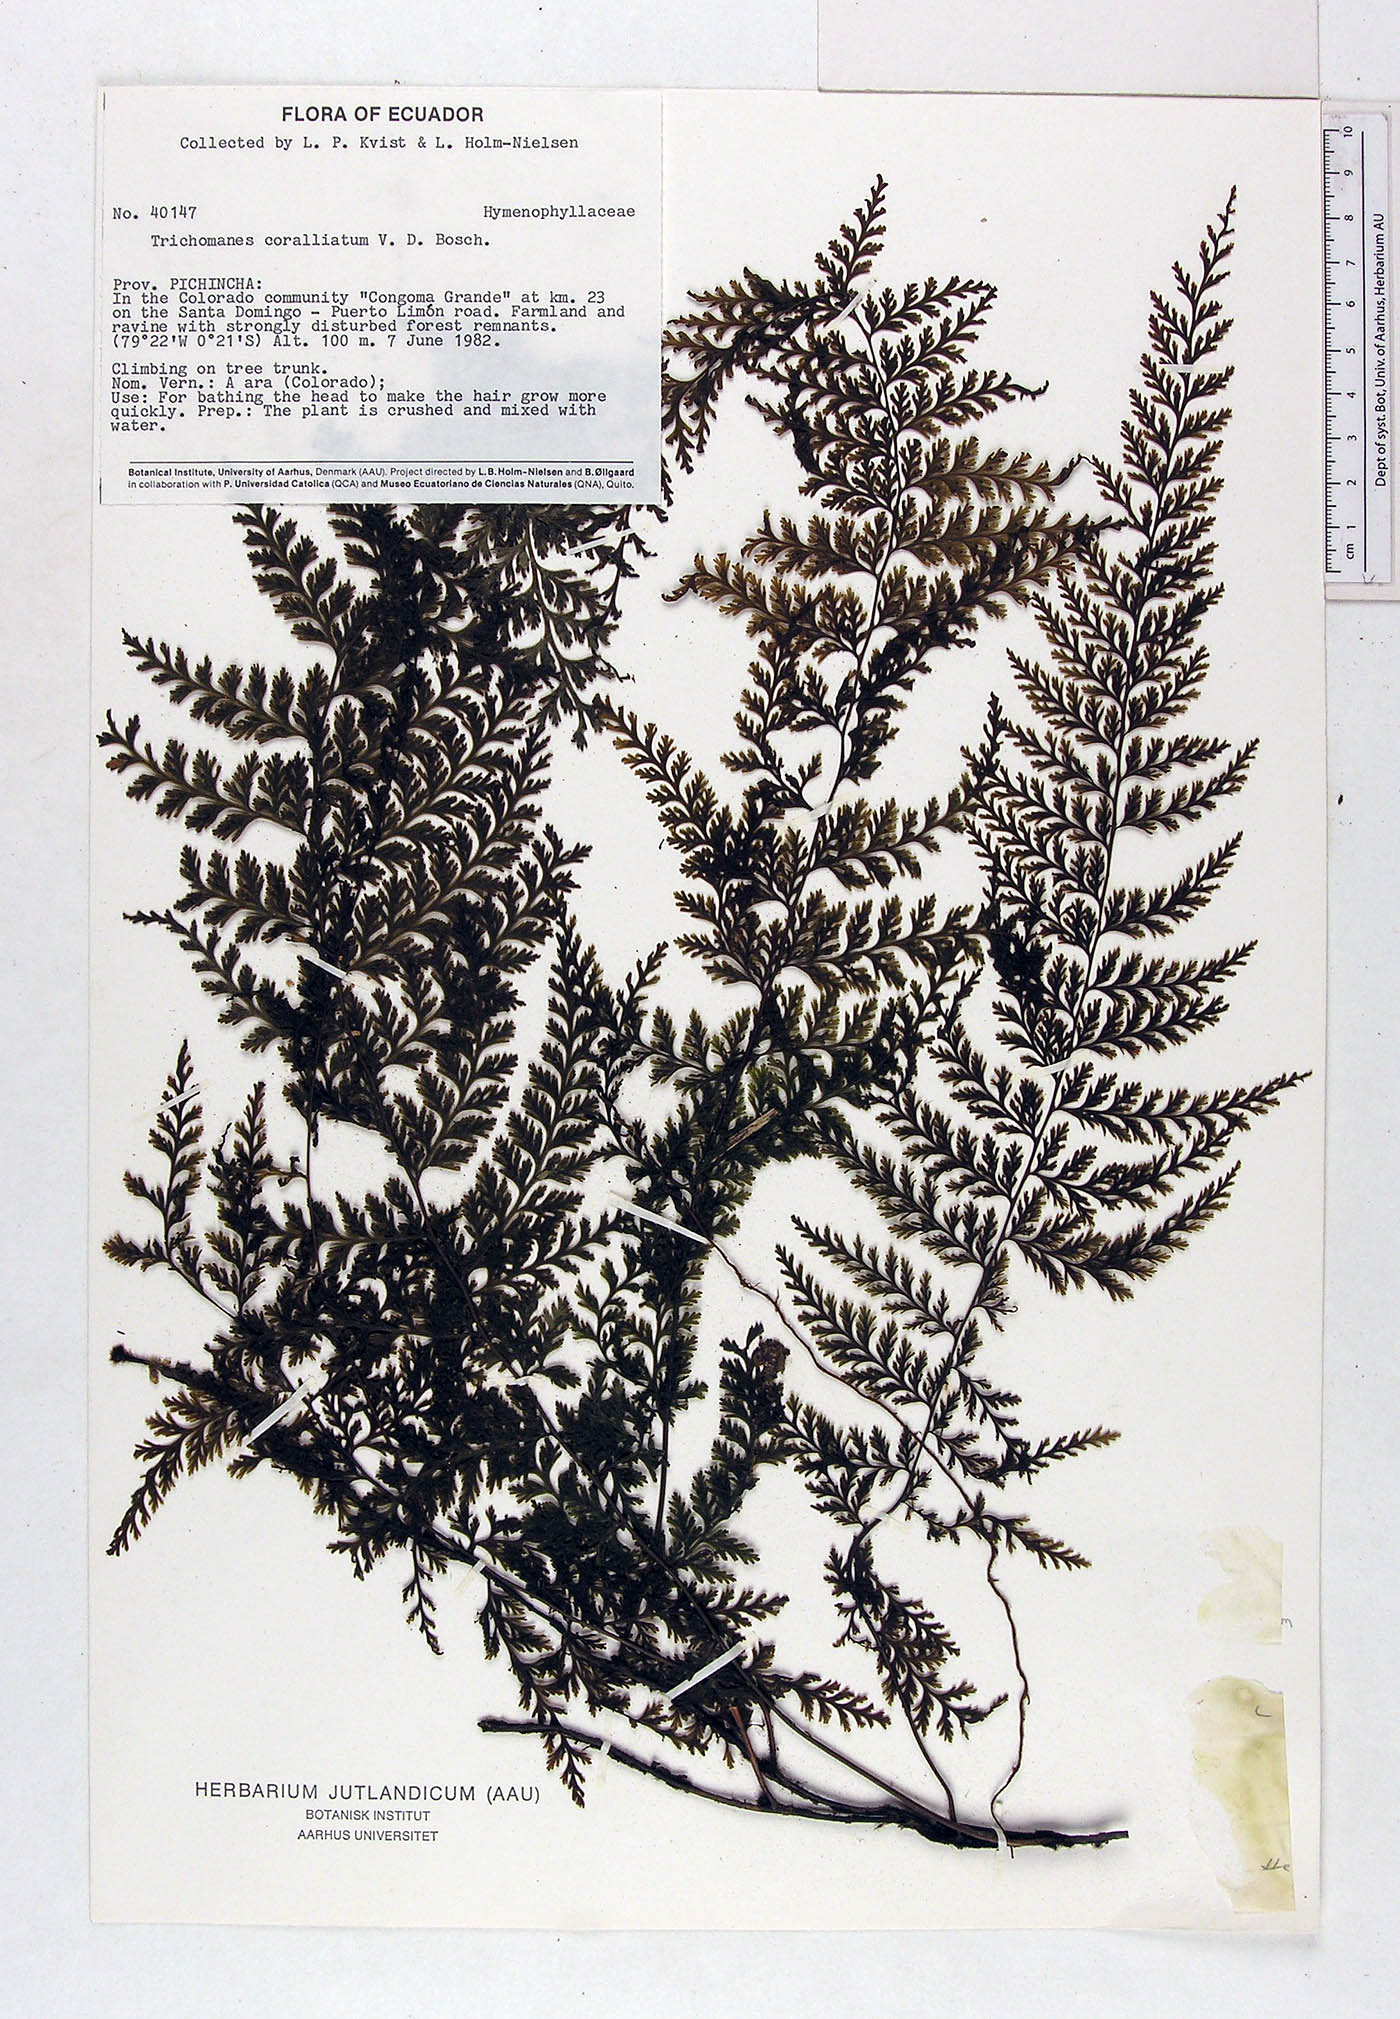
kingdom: Plantae
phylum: Tracheophyta
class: Polypodiopsida
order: Hymenophyllales
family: Hymenophyllaceae
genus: Vandenboschia
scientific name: Vandenboschia collariata
